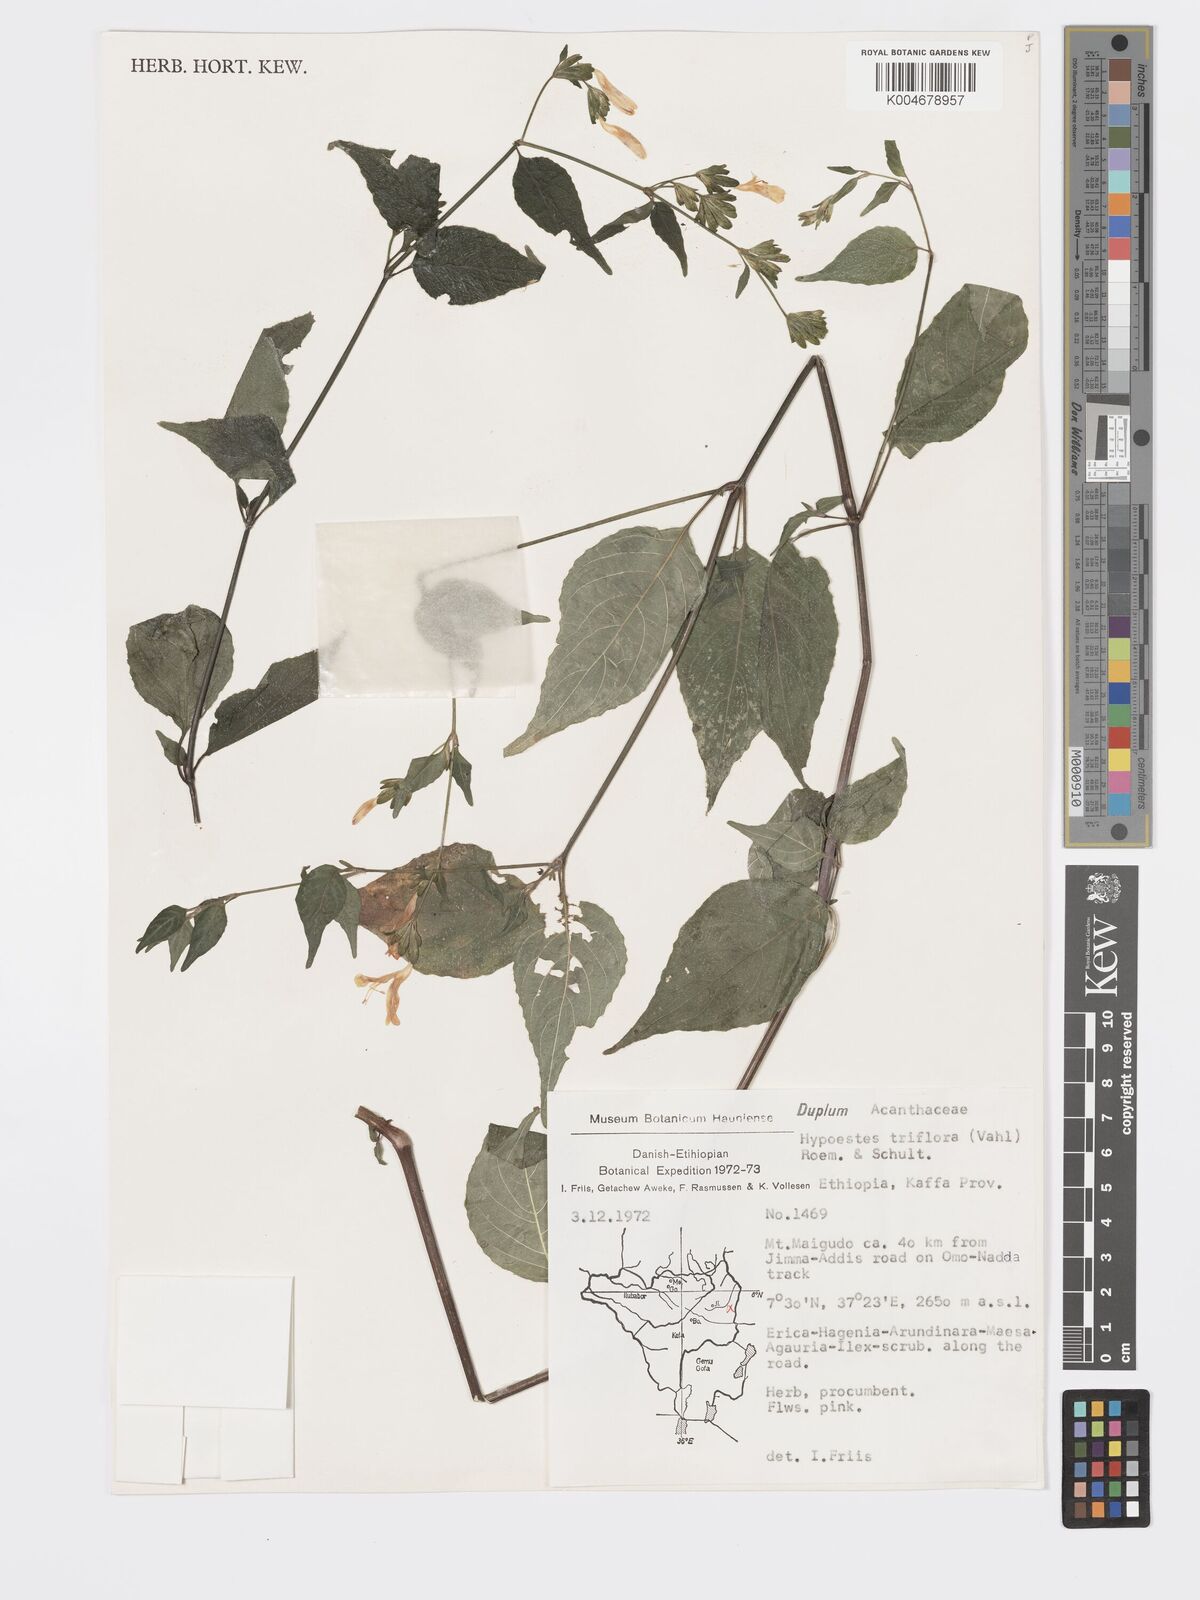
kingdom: Plantae
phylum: Tracheophyta
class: Magnoliopsida
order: Lamiales
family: Acanthaceae
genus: Hypoestes
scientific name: Hypoestes triflora
